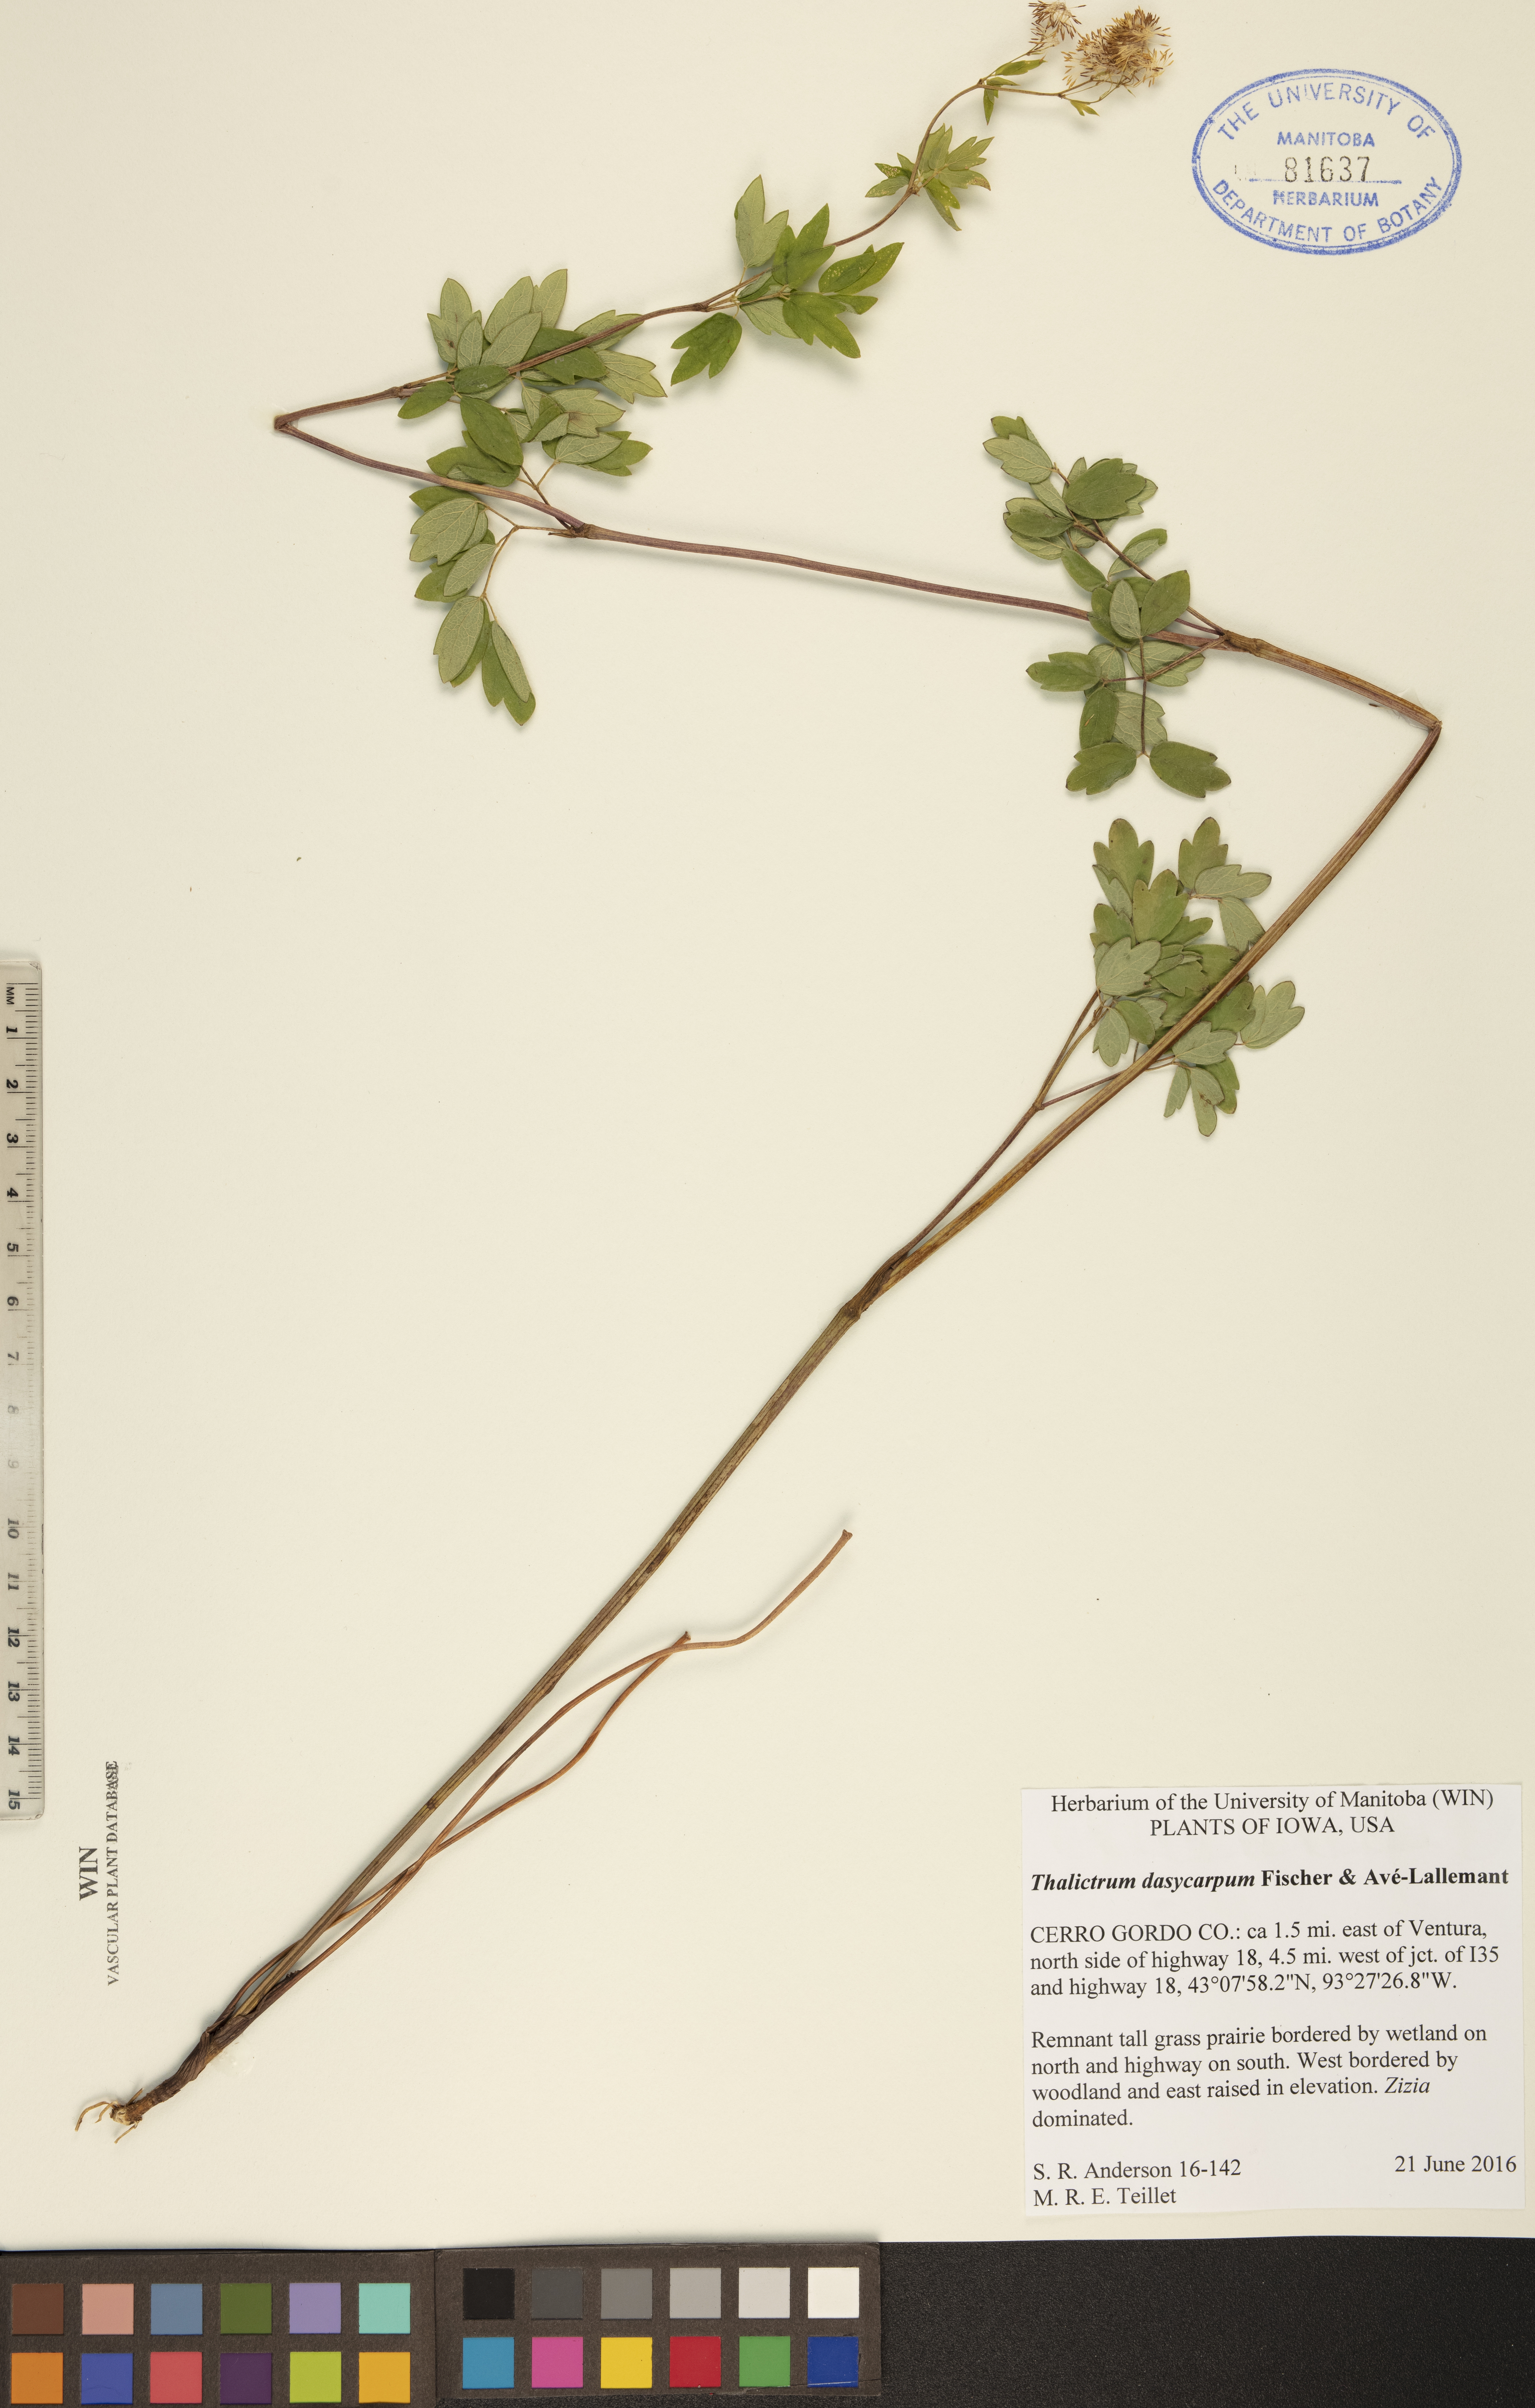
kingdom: Plantae
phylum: Tracheophyta
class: Magnoliopsida
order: Ranunculales
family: Ranunculaceae
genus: Thalictrum
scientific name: Thalictrum dasycarpum
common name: Purple meadow-rue
